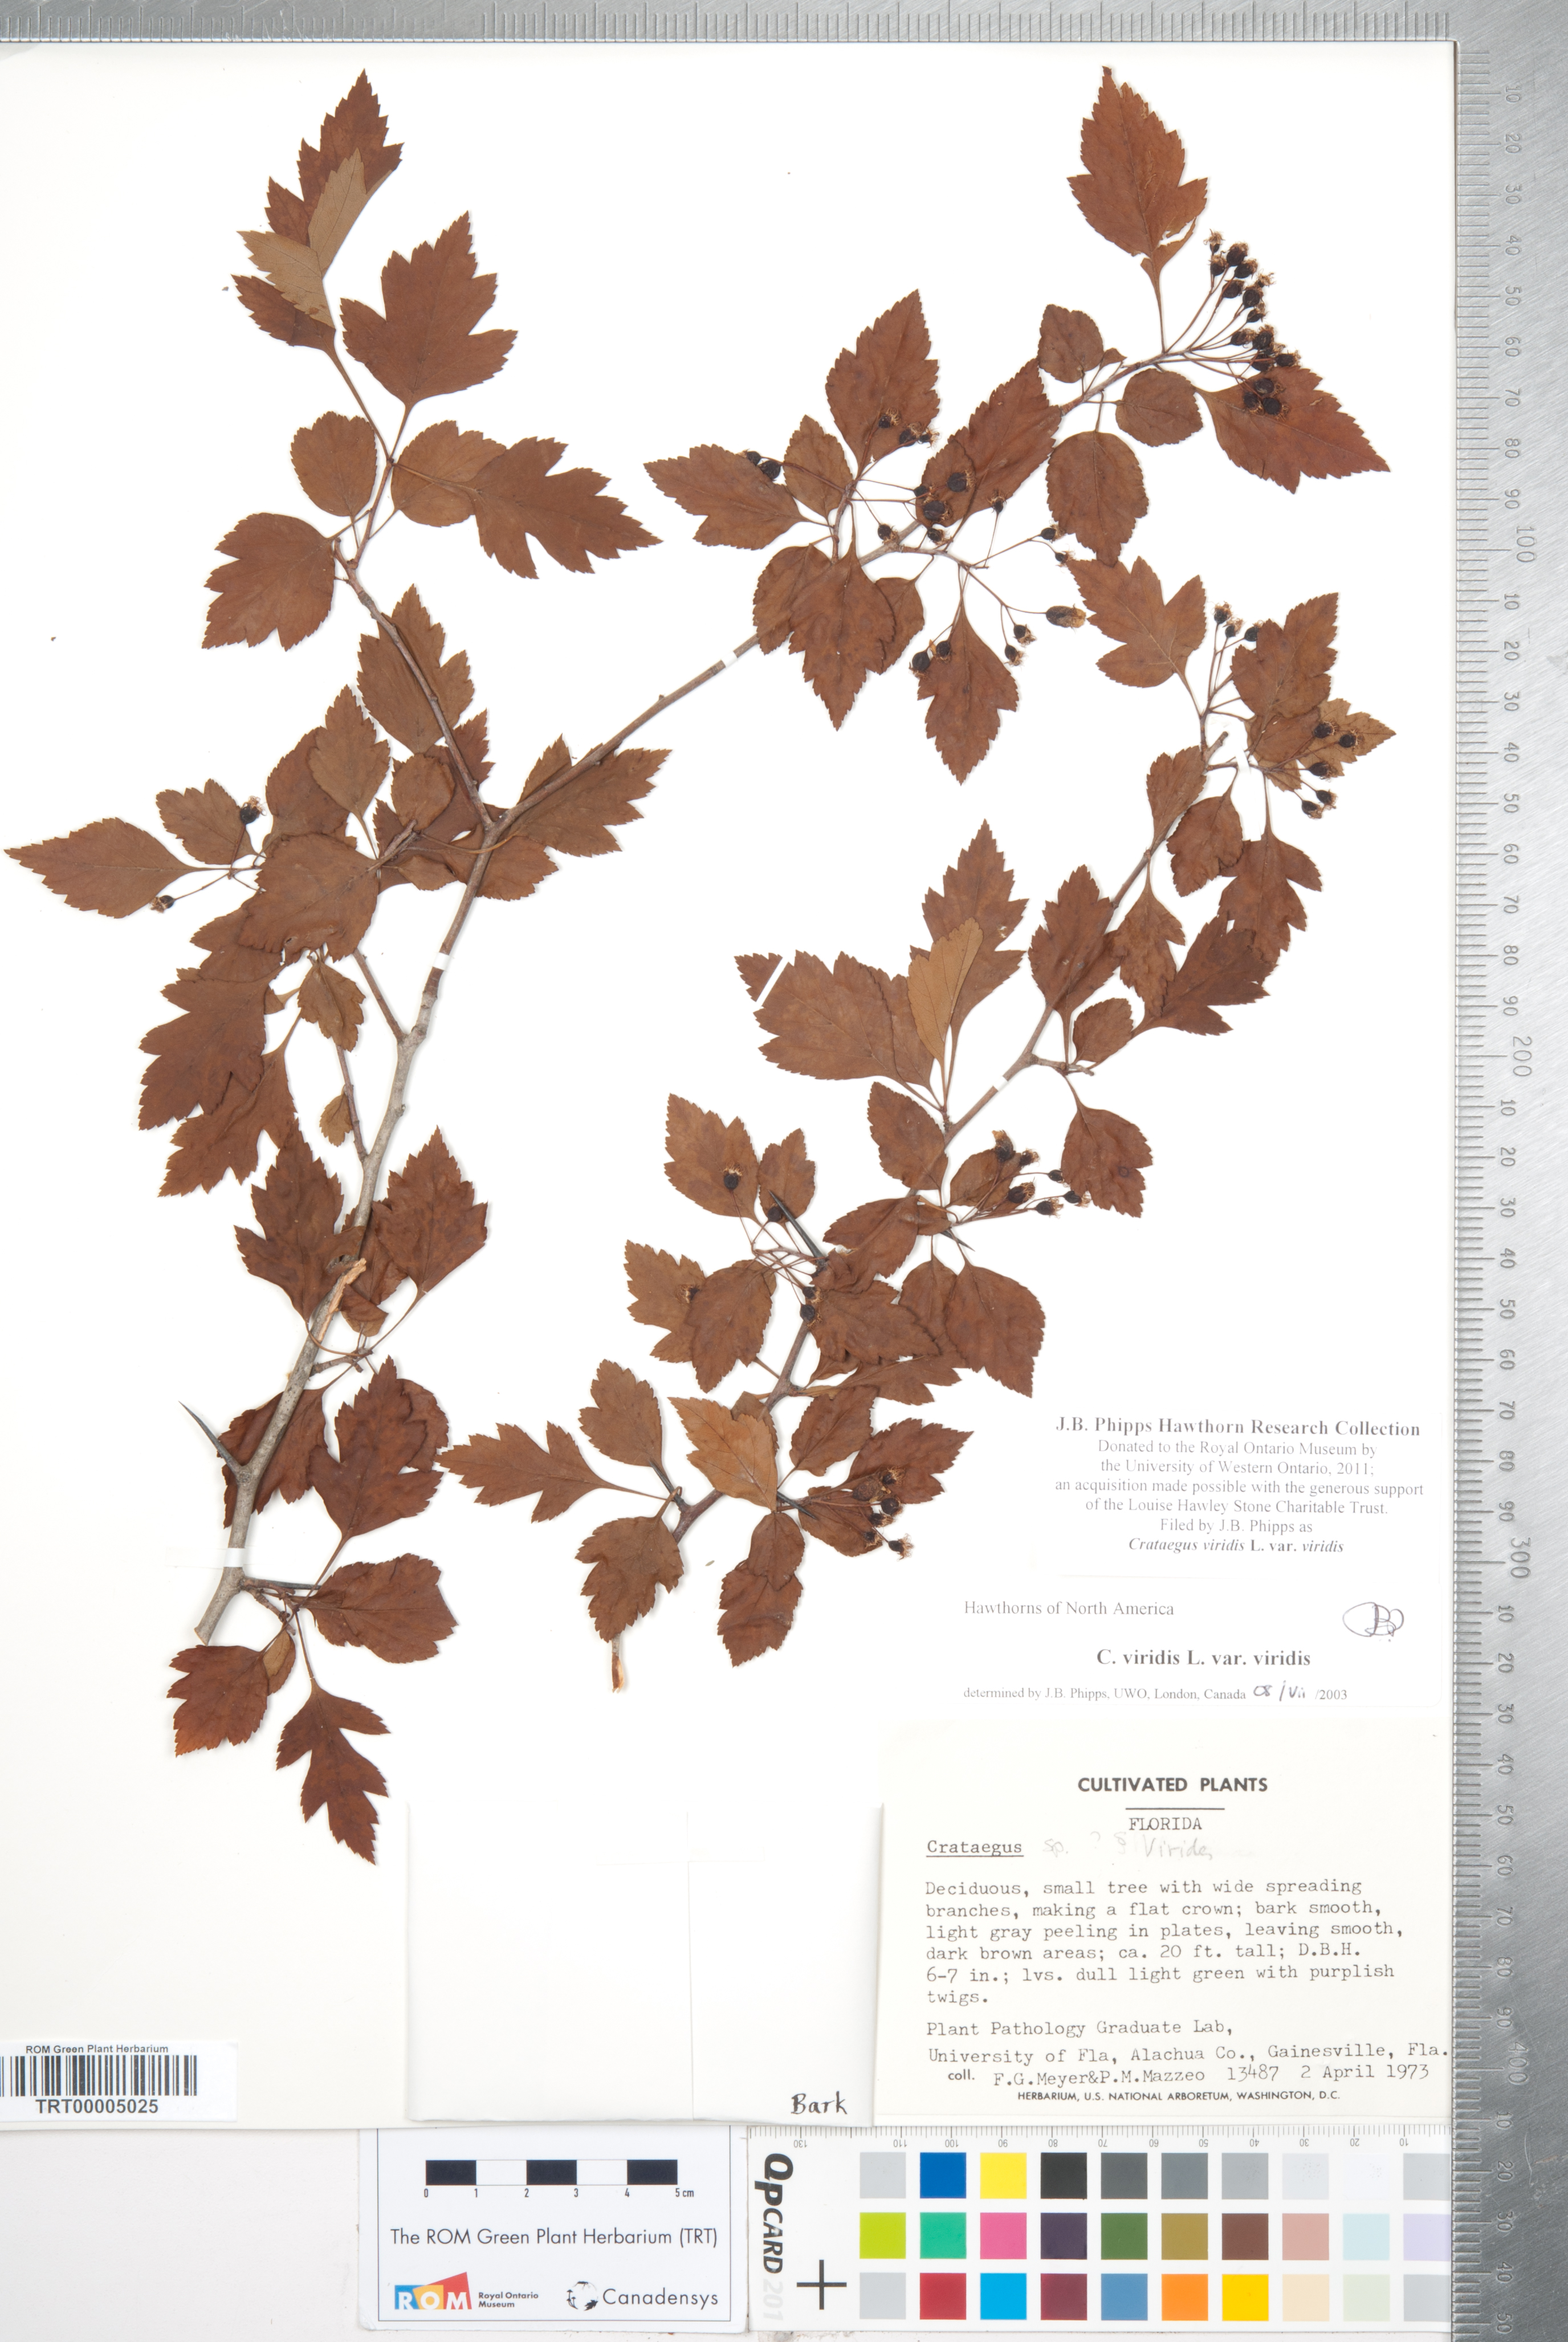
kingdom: Plantae
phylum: Tracheophyta
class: Magnoliopsida
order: Rosales
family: Rosaceae
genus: Crataegus
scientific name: Crataegus viridis
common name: Southernthorn
